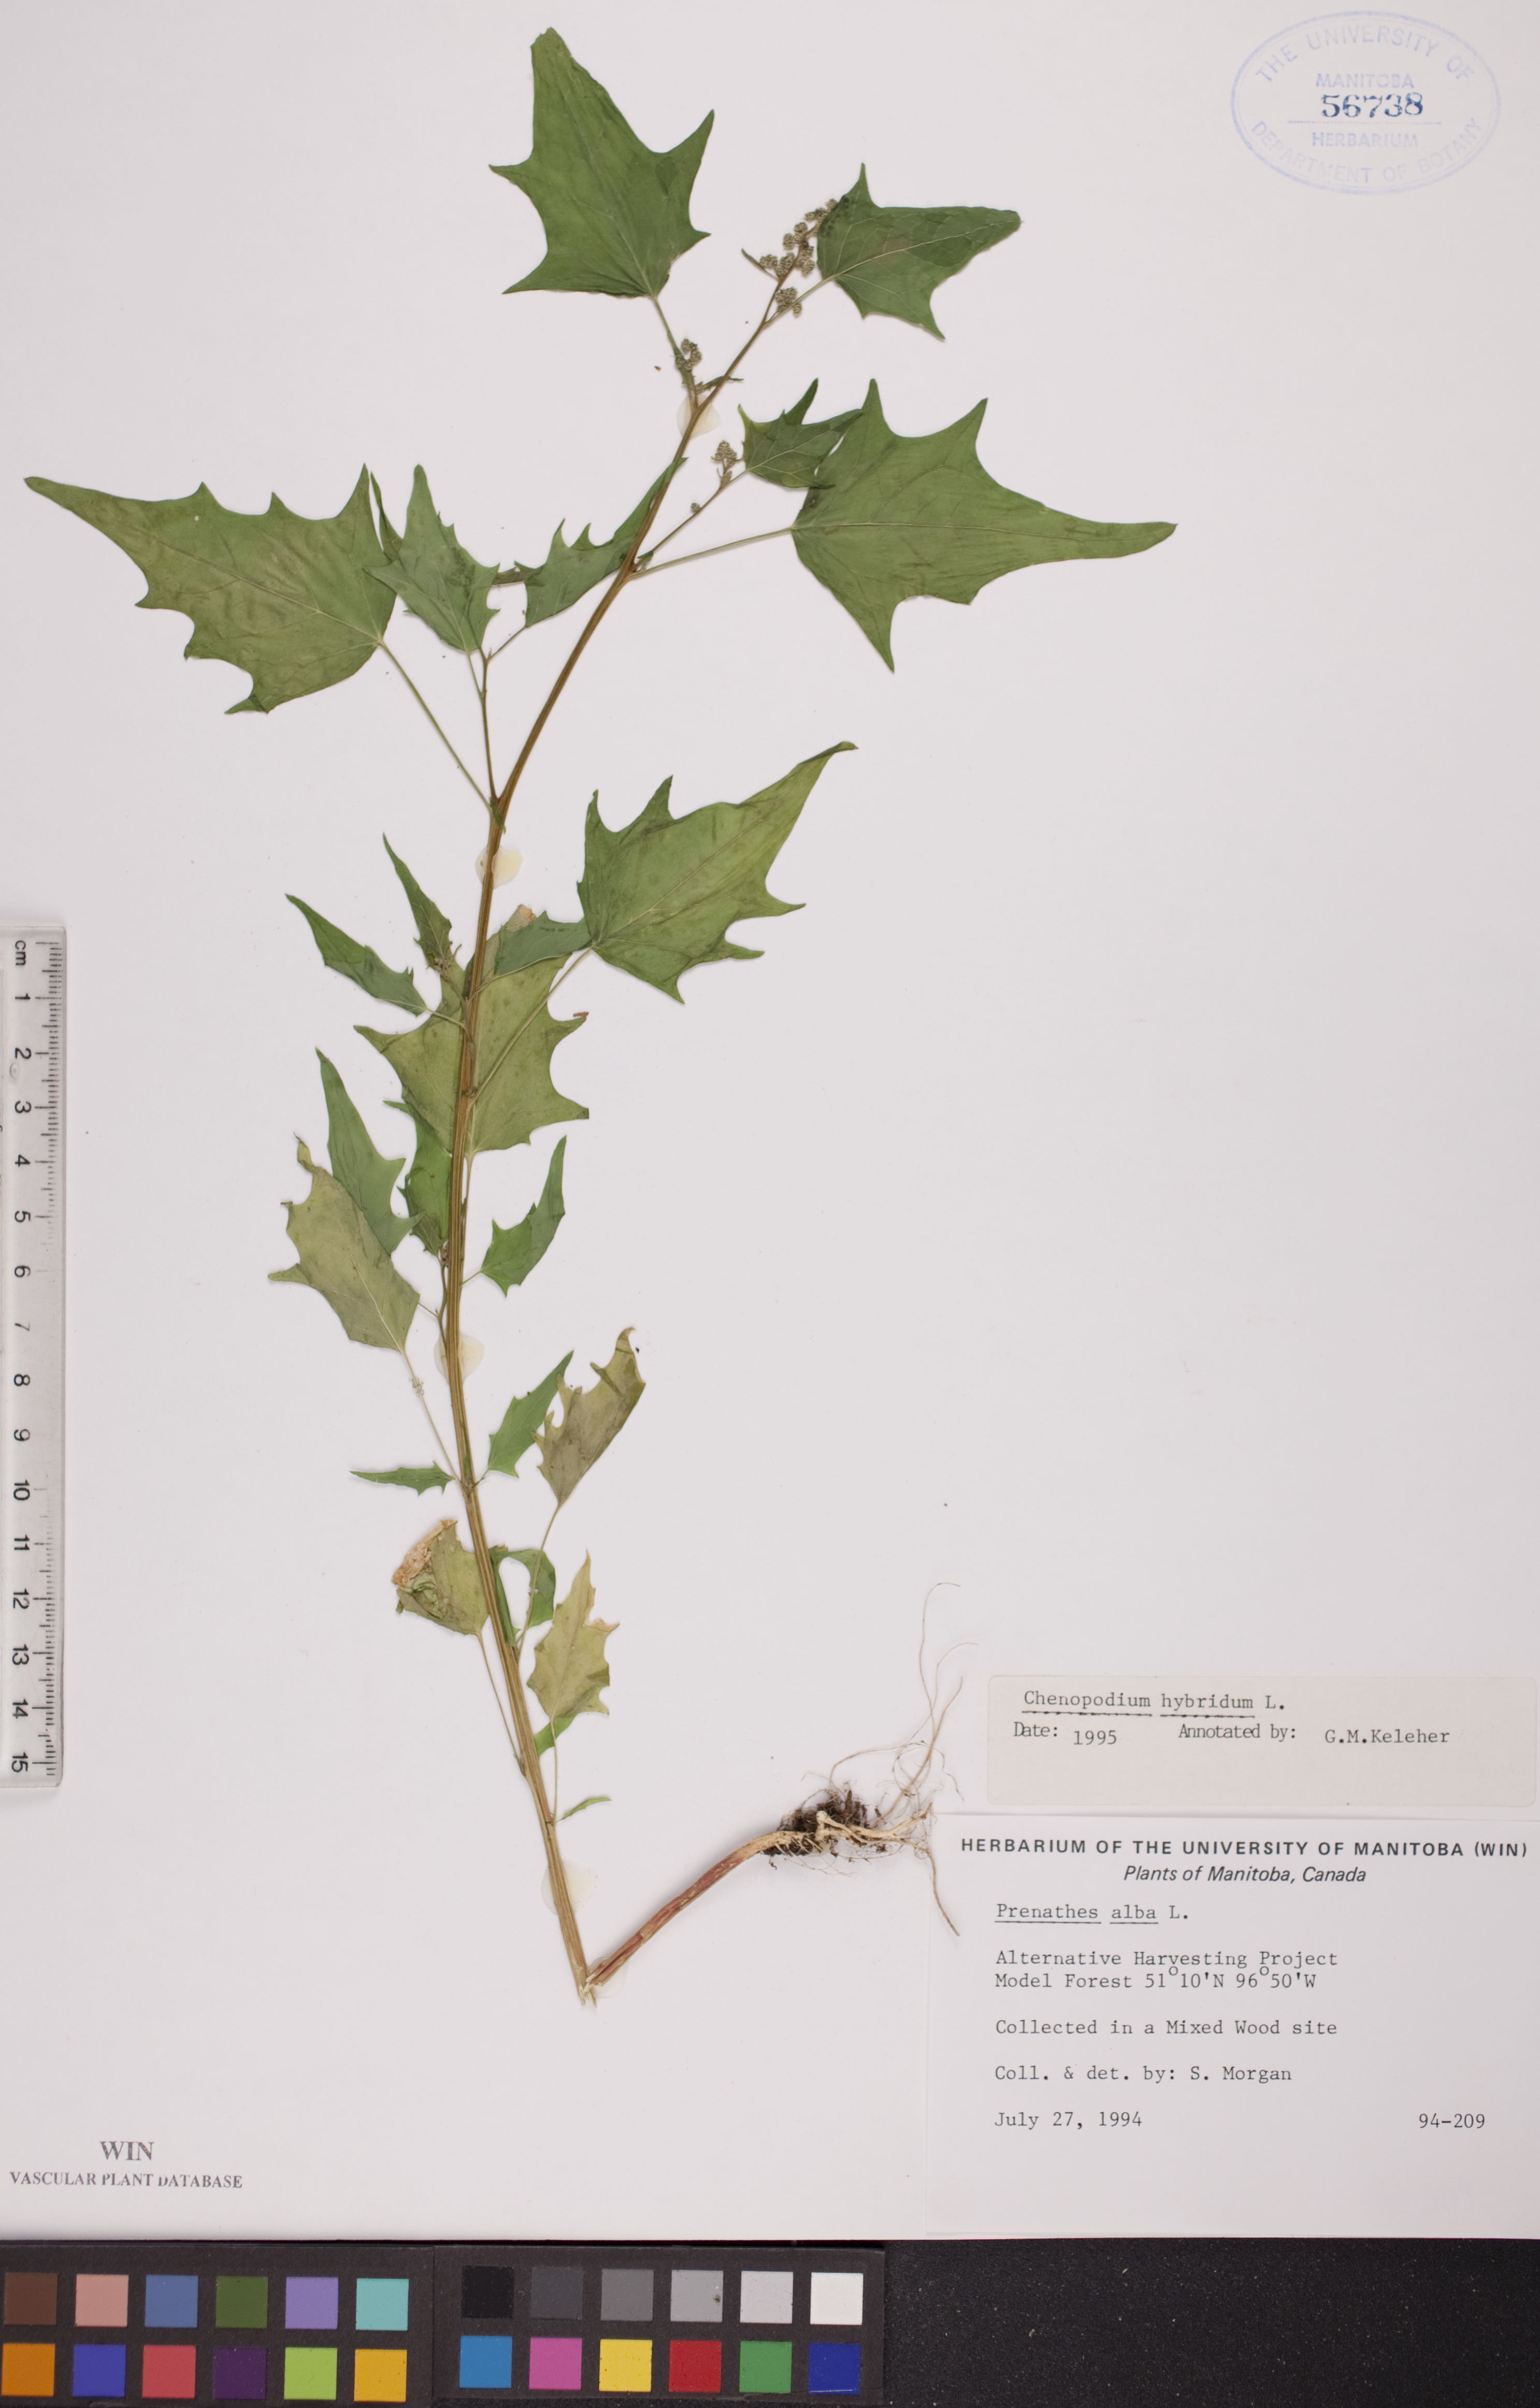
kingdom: Plantae
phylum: Tracheophyta
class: Magnoliopsida
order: Caryophyllales
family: Amaranthaceae
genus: Chenopodiastrum
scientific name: Chenopodiastrum hybridum
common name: Mapleleaf goosefoot
